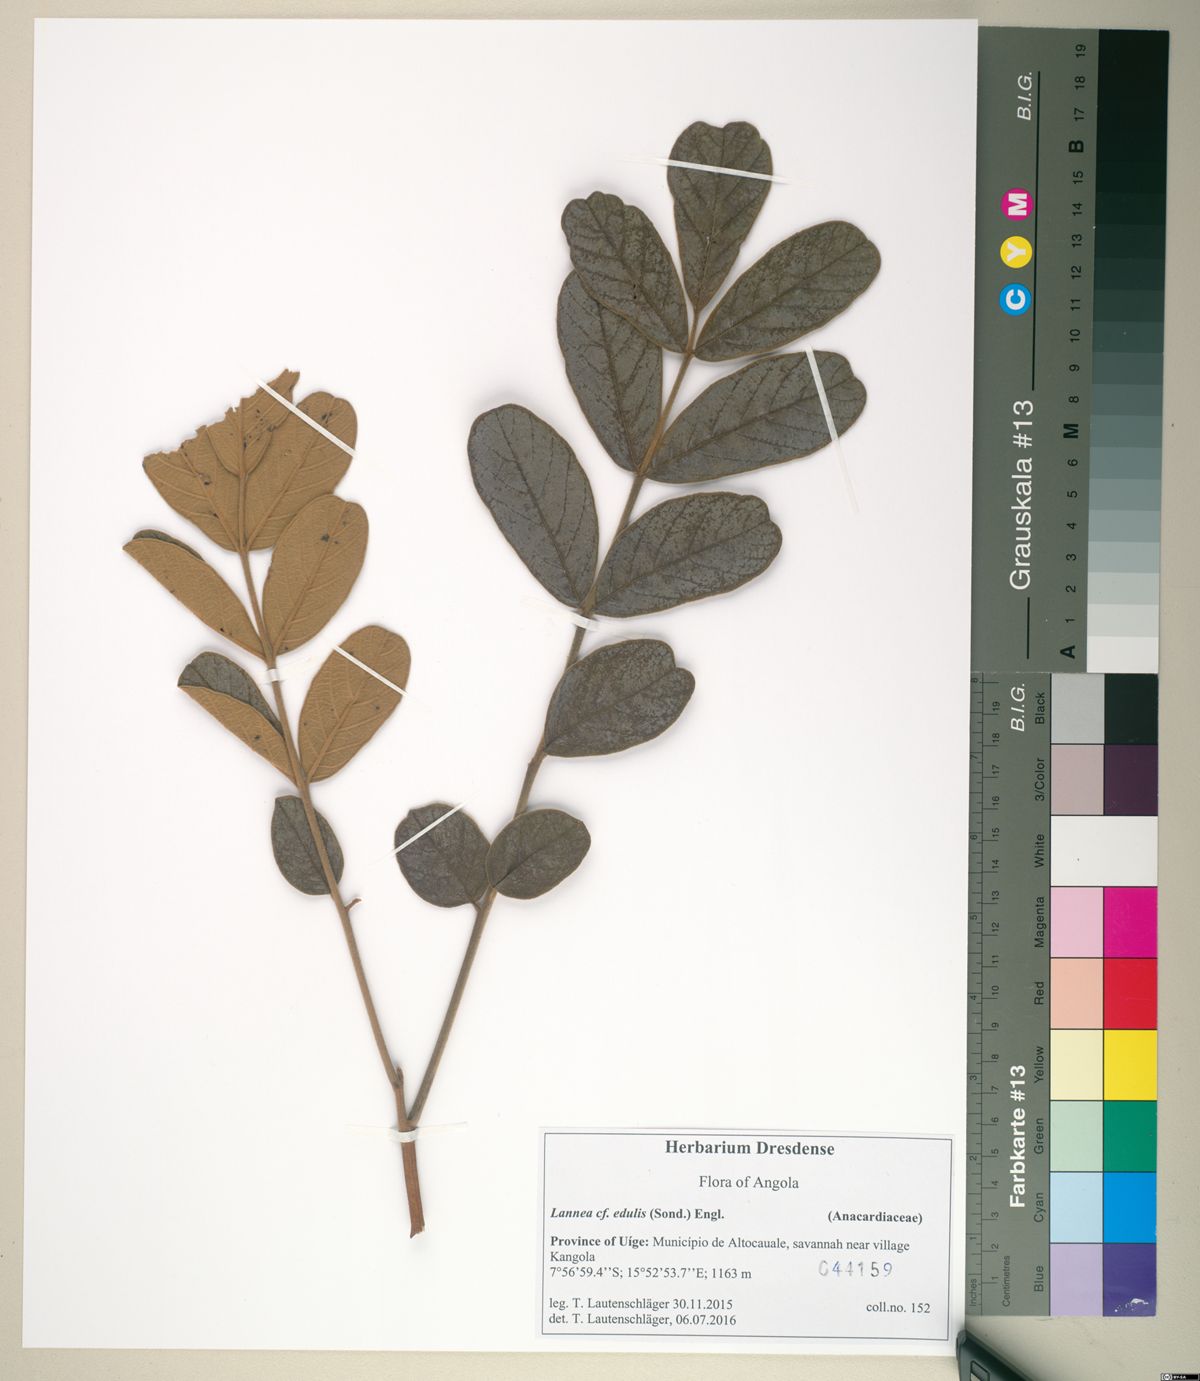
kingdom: Plantae
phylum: Tracheophyta
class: Magnoliopsida
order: Sapindales
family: Anacardiaceae
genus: Lannea
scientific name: Lannea ambacensis
